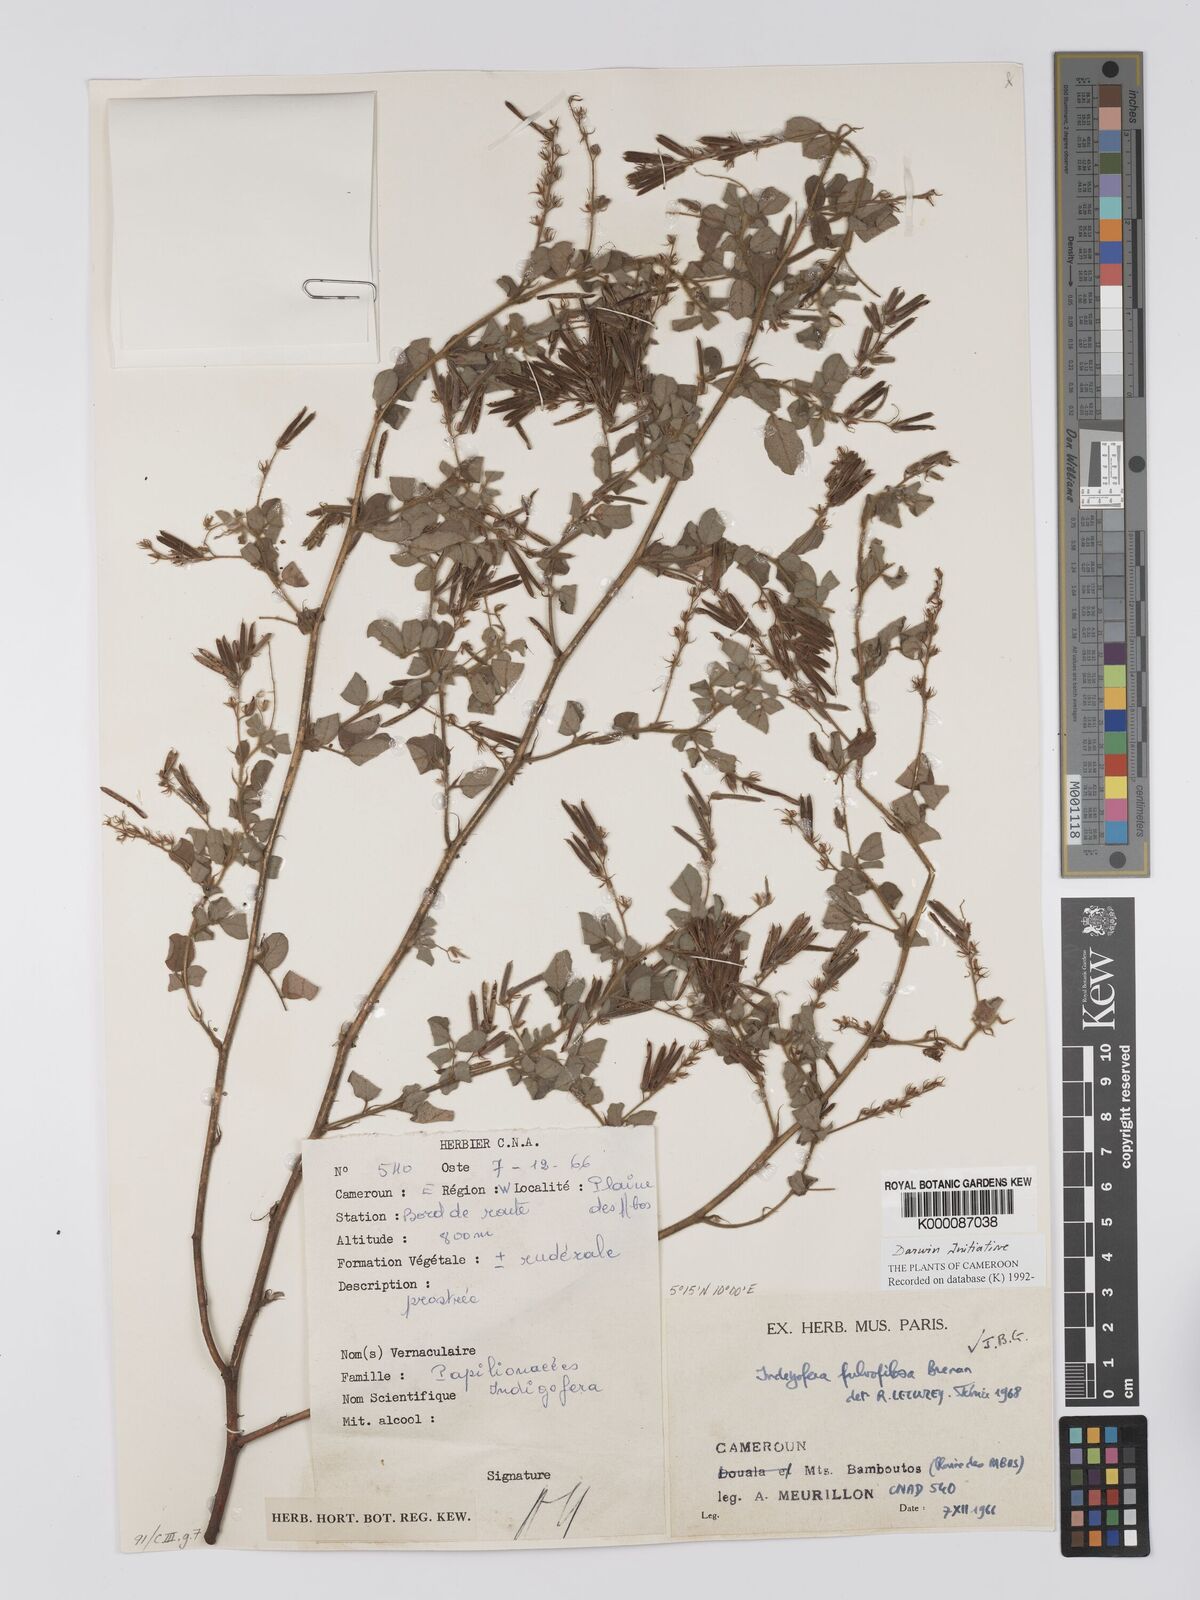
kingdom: Plantae
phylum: Tracheophyta
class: Magnoliopsida
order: Fabales
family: Fabaceae
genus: Indigofera
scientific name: Indigofera fulvopilosa
